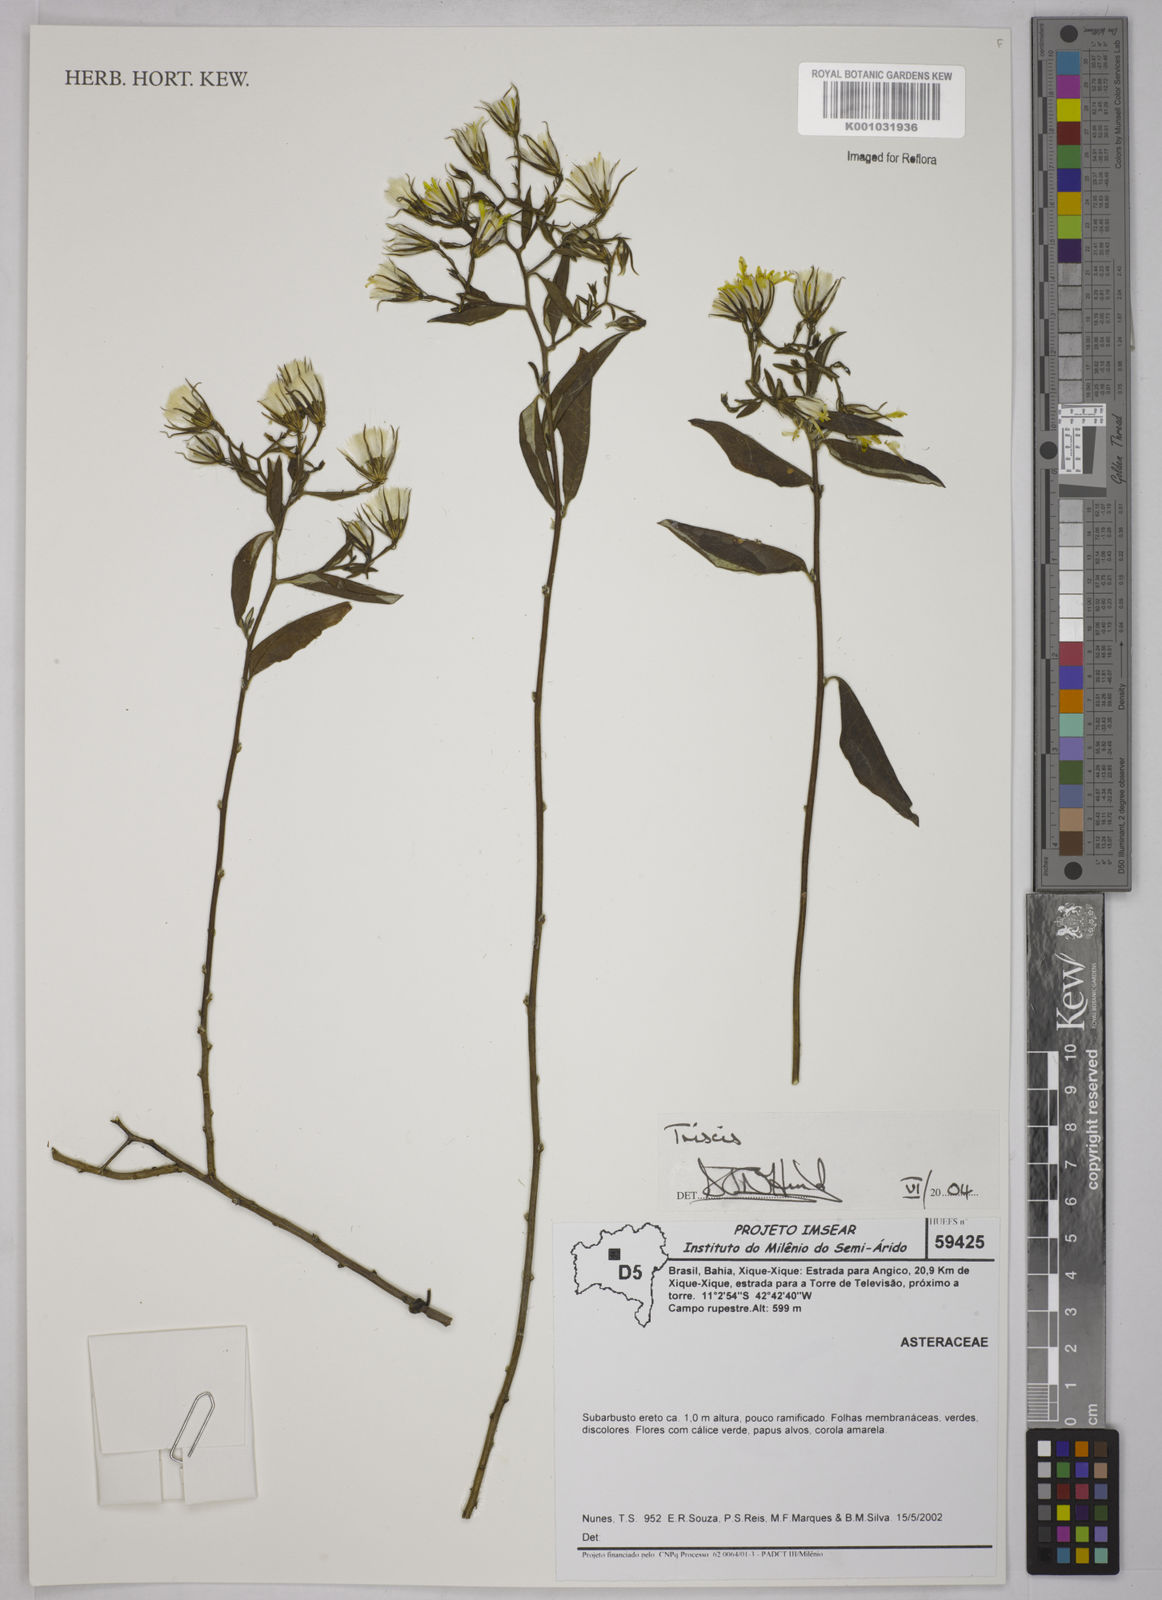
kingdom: Plantae
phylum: Tracheophyta
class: Magnoliopsida
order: Asterales
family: Asteraceae
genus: Trixis
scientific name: Trixis
